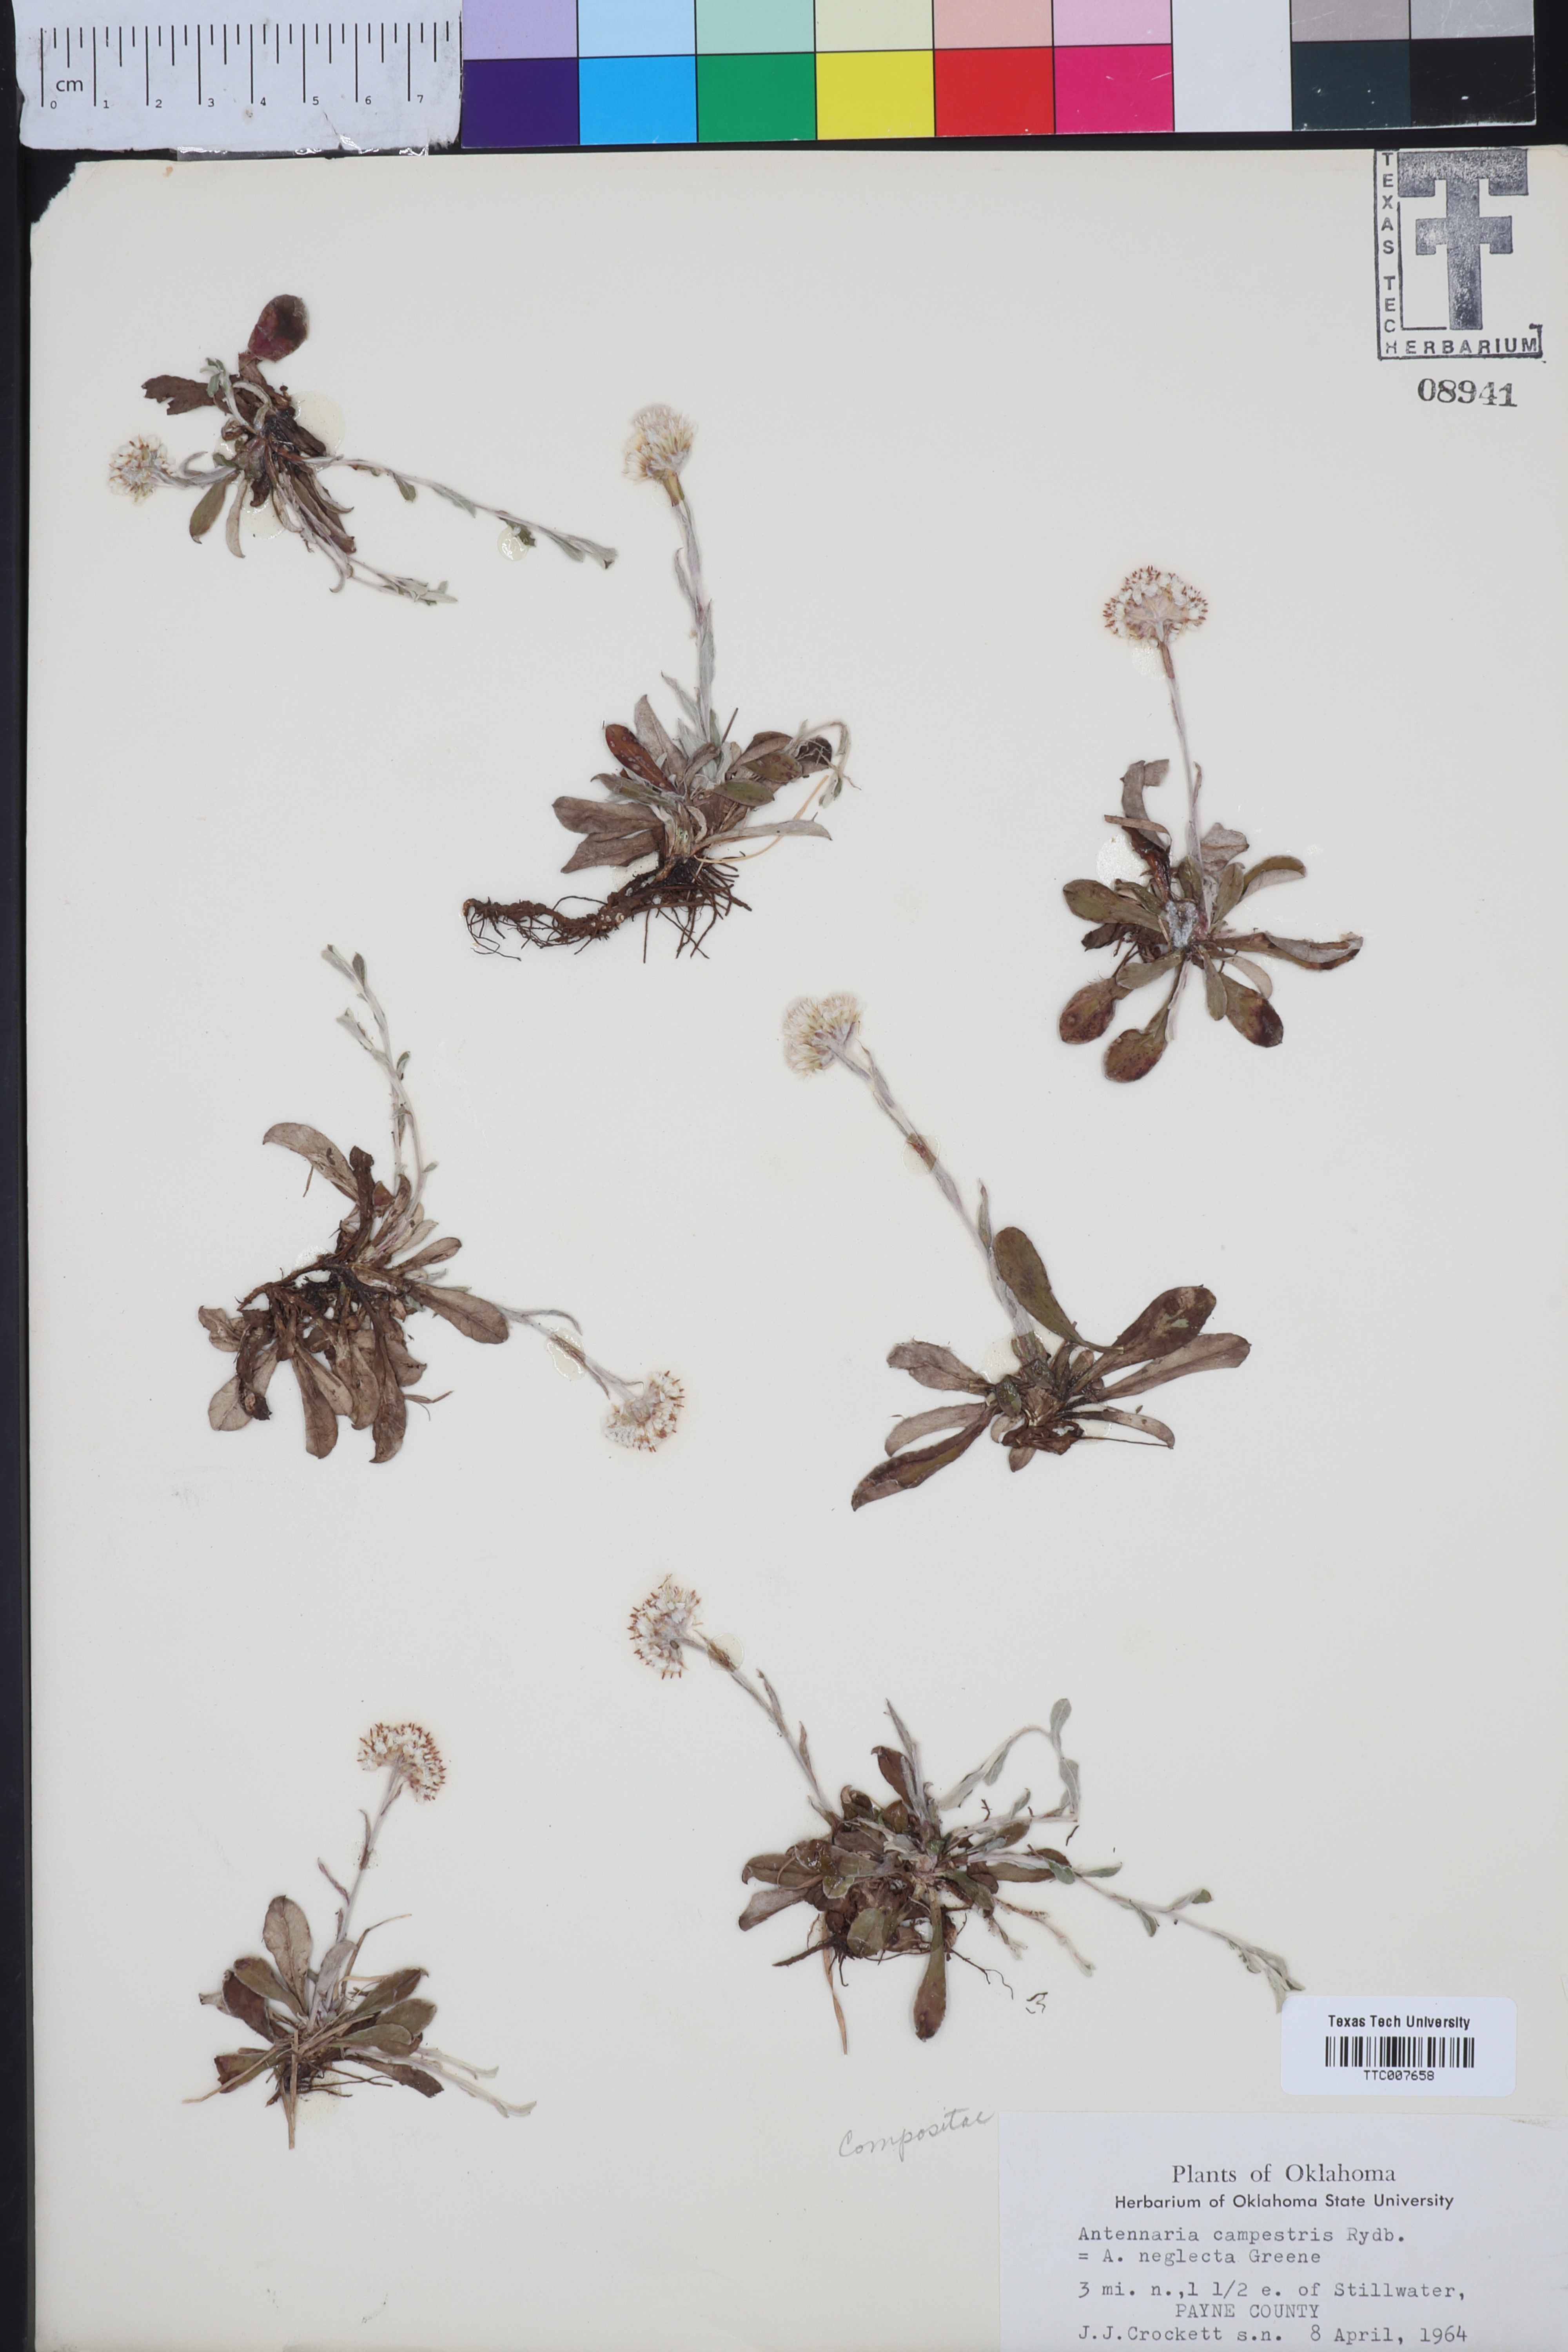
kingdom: Plantae
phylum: Tracheophyta
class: Magnoliopsida
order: Asterales
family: Asteraceae
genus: Antennaria
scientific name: Antennaria neglecta
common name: Field pussytoes
